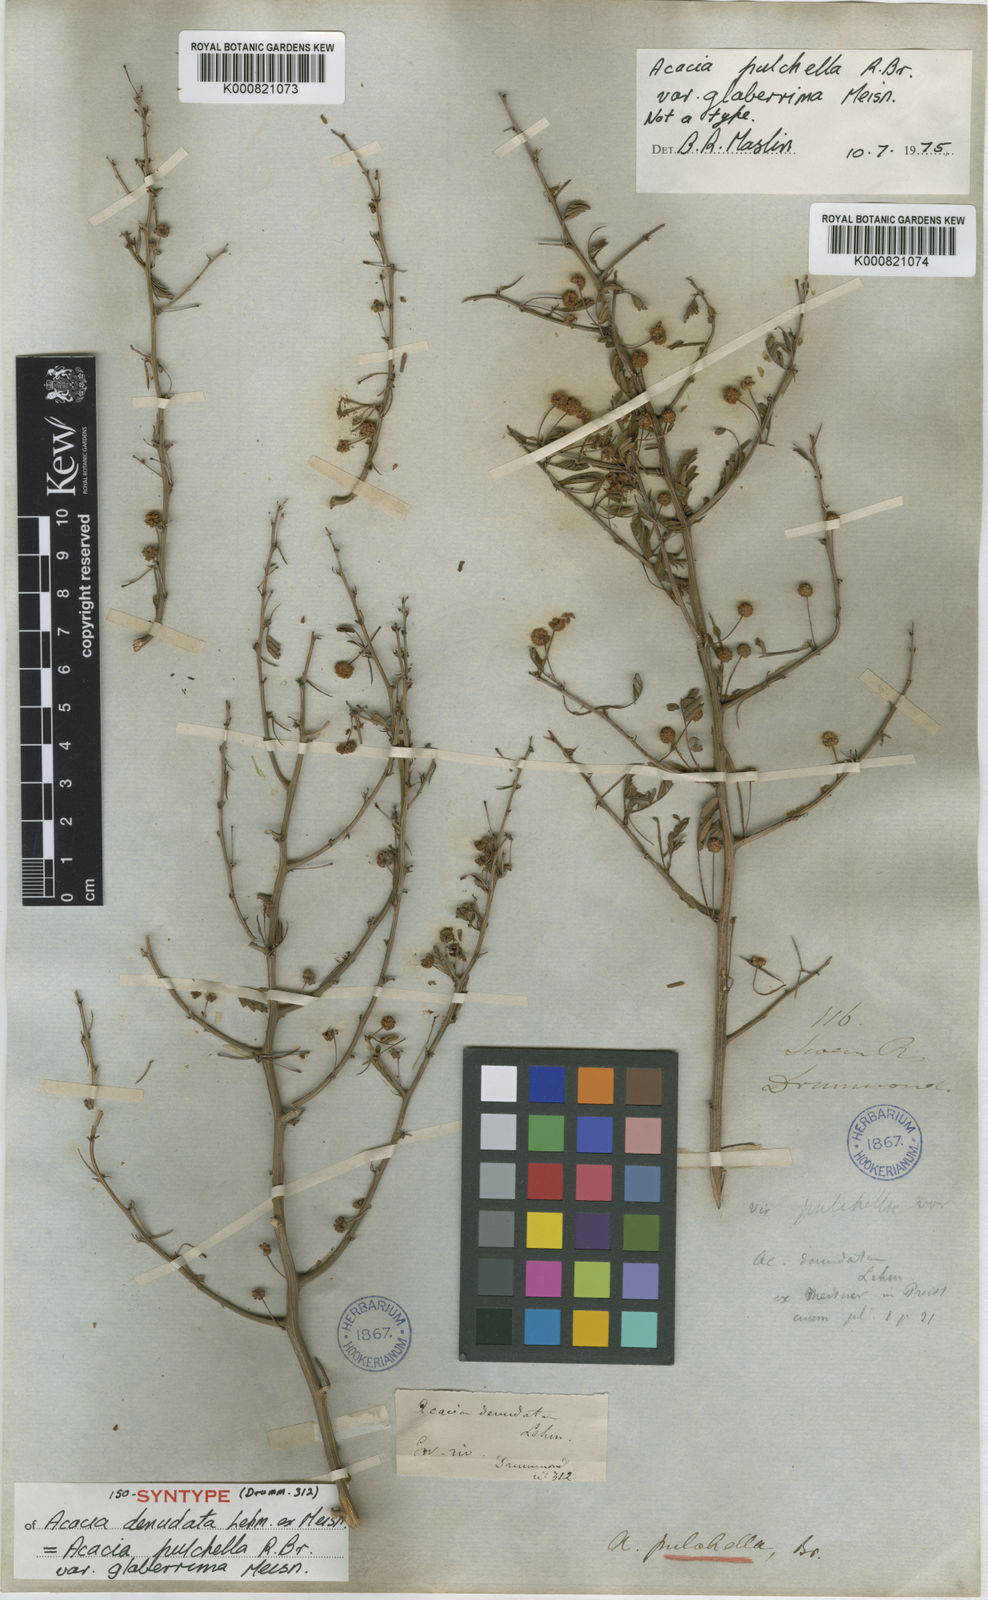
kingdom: Plantae
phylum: Tracheophyta
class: Magnoliopsida
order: Fabales
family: Fabaceae
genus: Acacia
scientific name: Acacia pulchella
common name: Prickly moses
